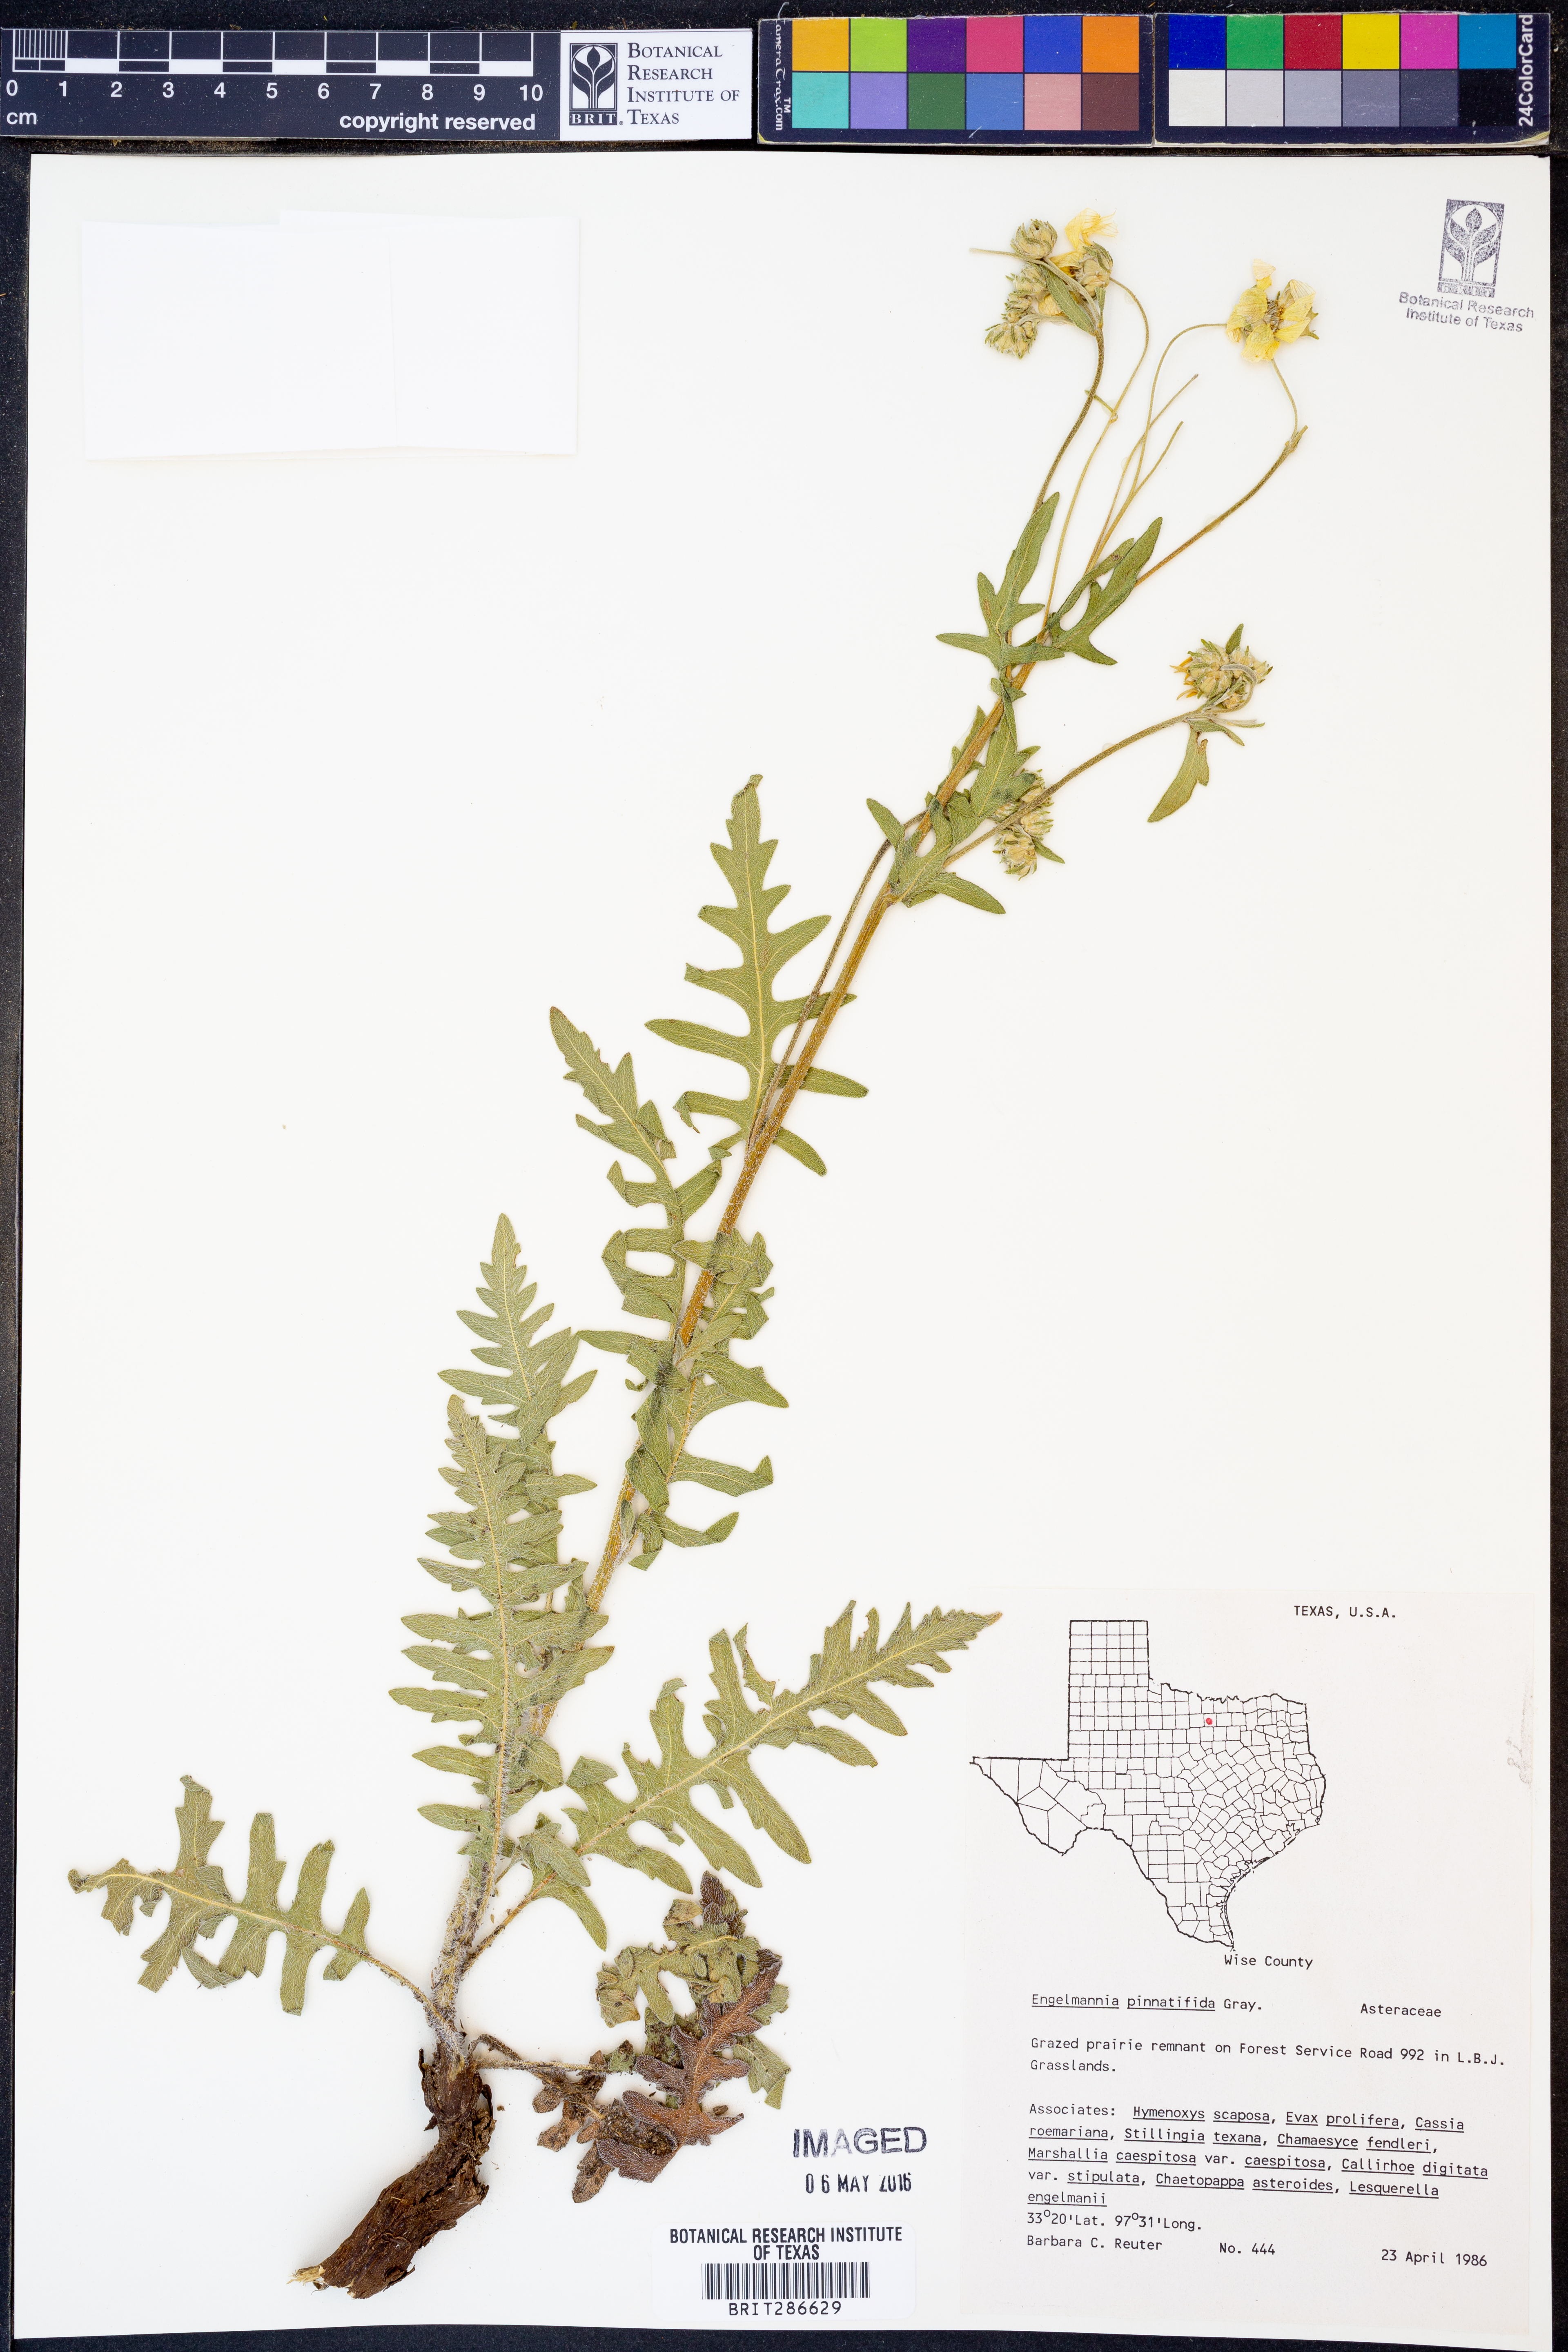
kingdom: Plantae
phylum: Tracheophyta
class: Magnoliopsida
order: Asterales
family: Asteraceae
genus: Engelmannia
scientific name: Engelmannia peristenia
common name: Engelmann's daisy
